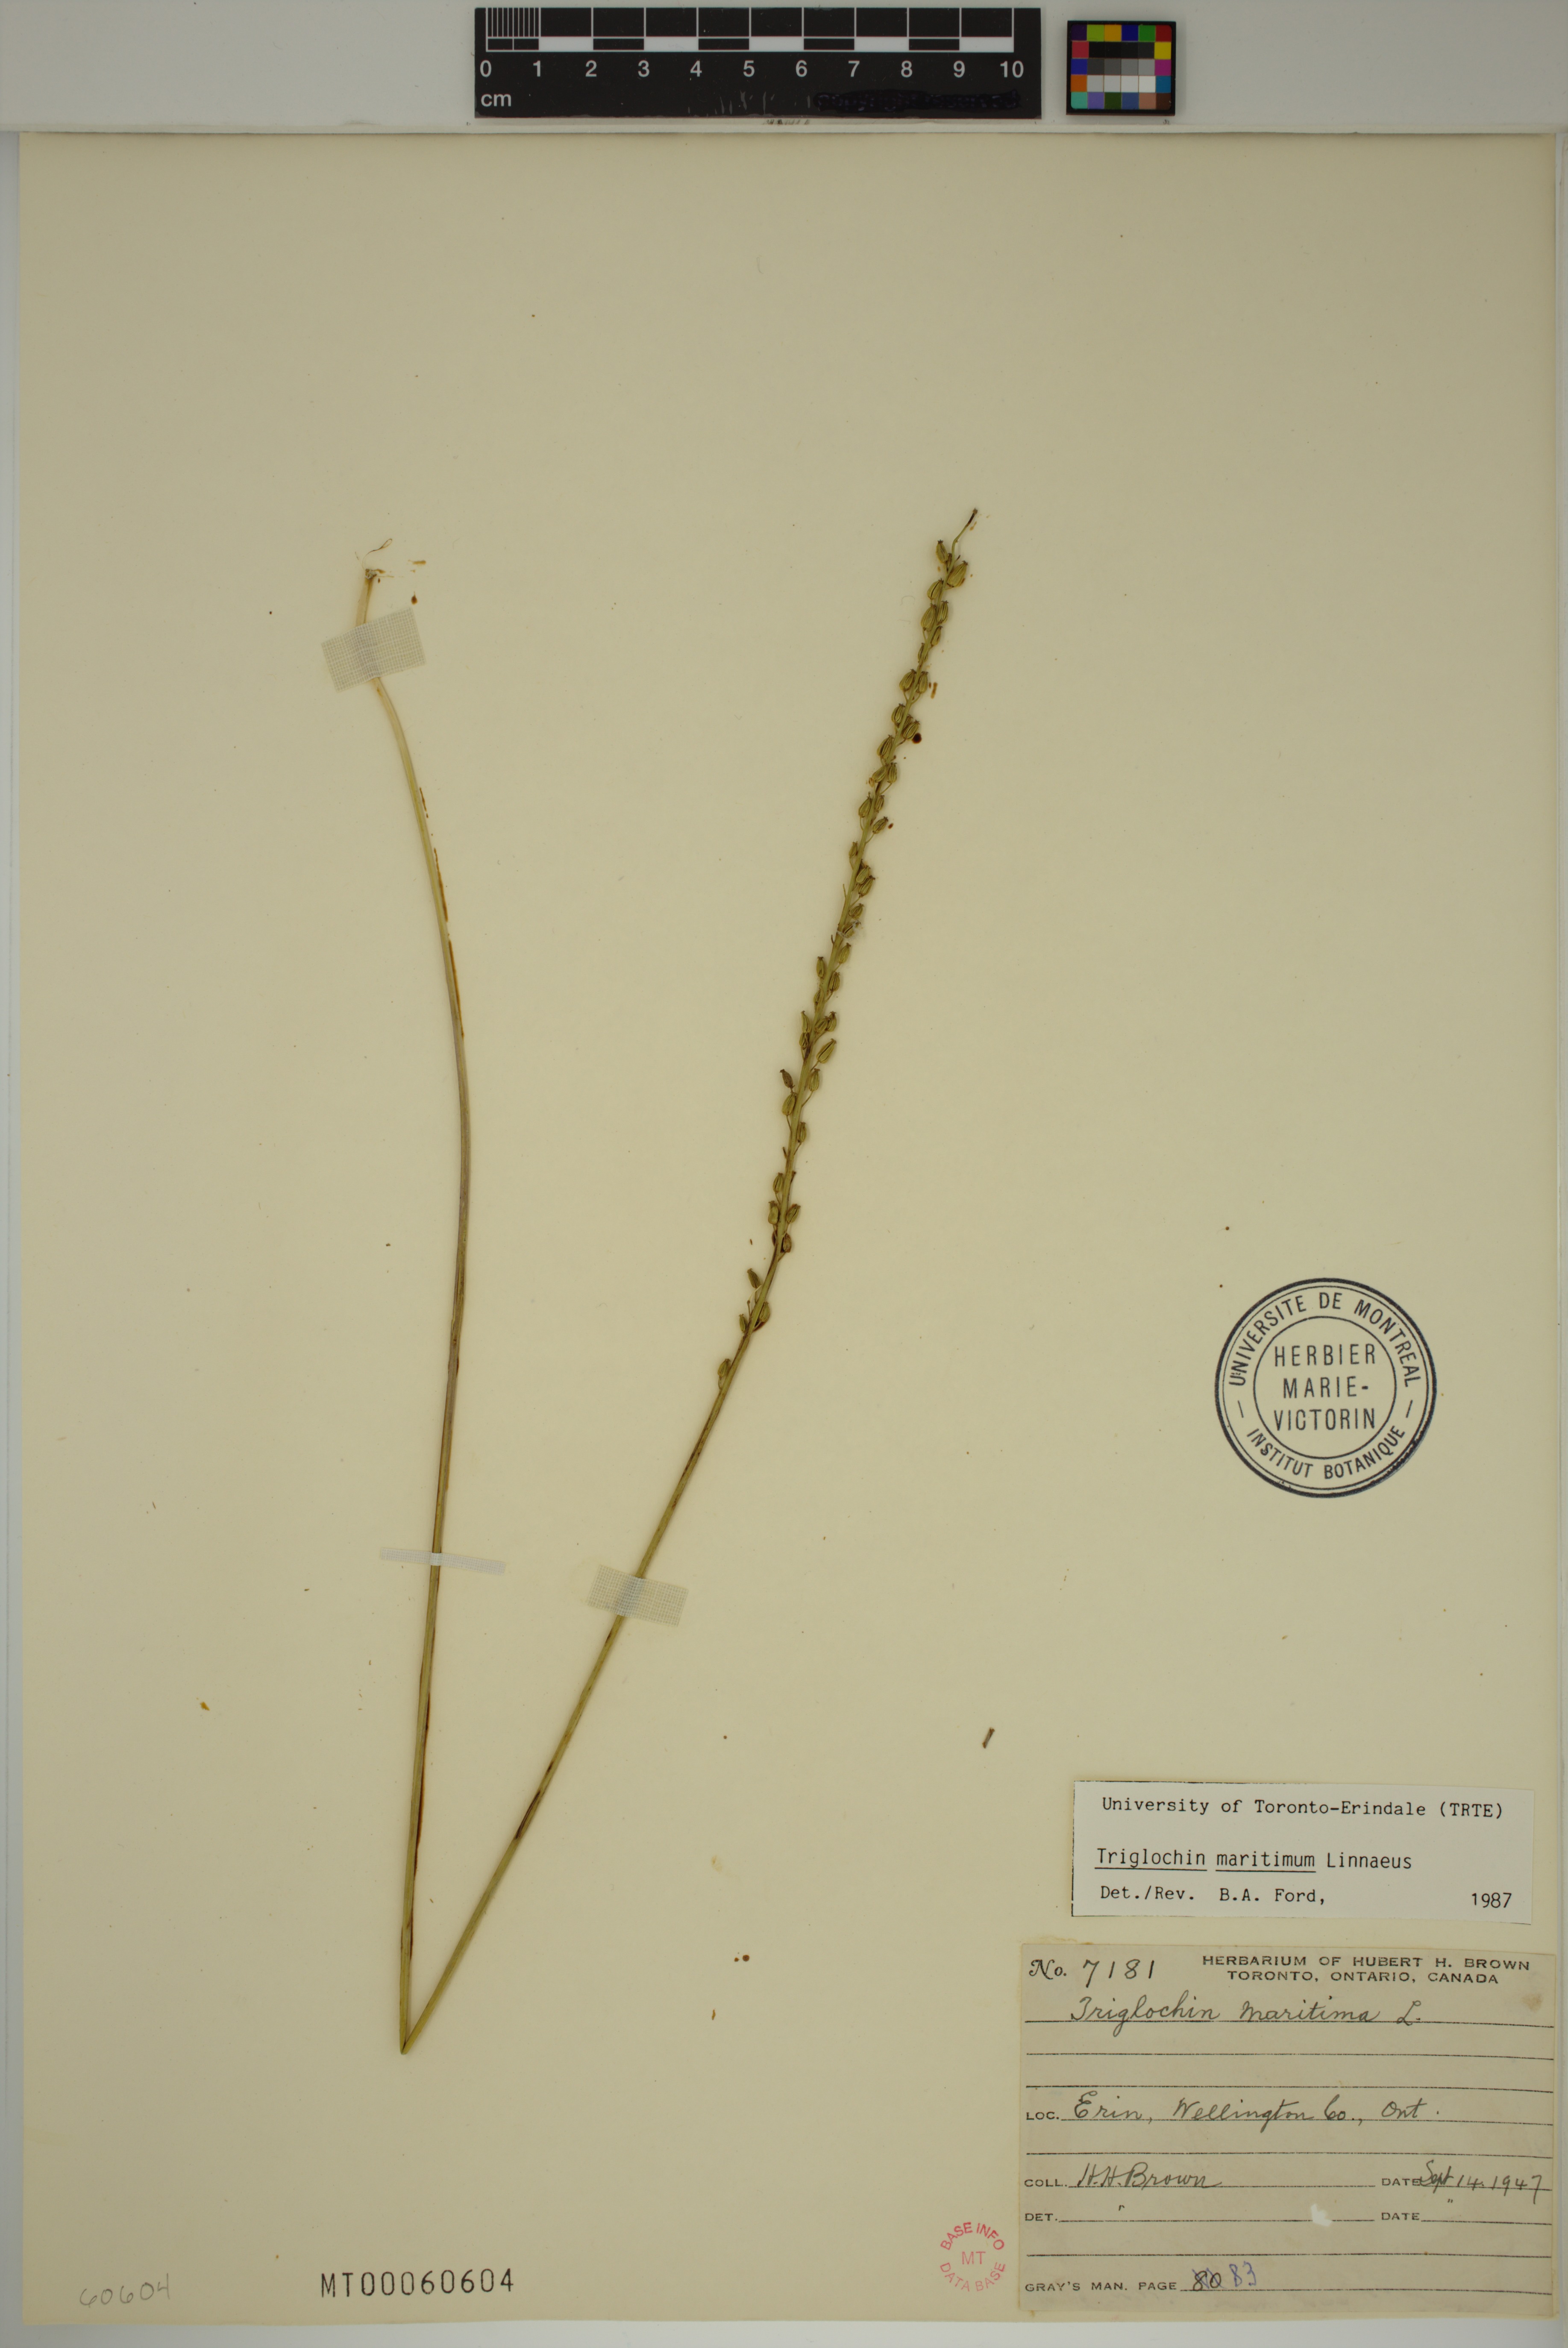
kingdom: Plantae
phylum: Tracheophyta
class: Liliopsida
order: Alismatales
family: Juncaginaceae
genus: Triglochin
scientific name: Triglochin maritima
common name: Sea arrowgrass
